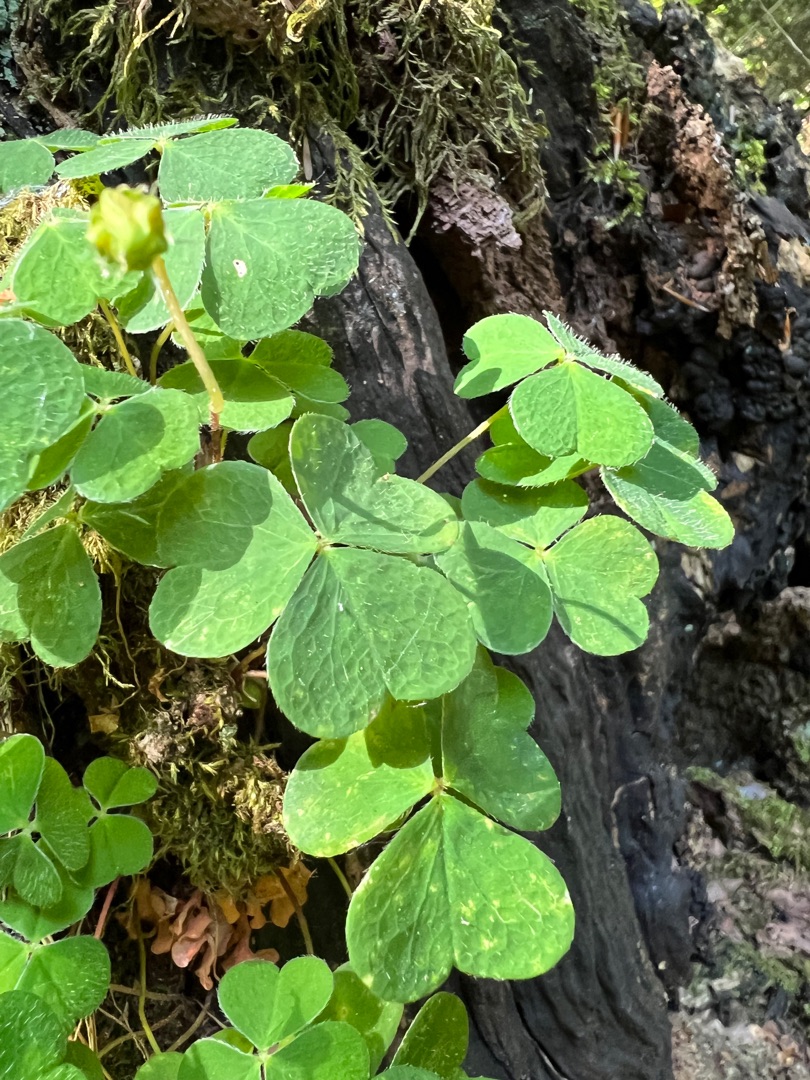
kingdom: Plantae
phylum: Tracheophyta
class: Magnoliopsida
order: Oxalidales
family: Oxalidaceae
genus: Oxalis
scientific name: Oxalis acetosella
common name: Skovsyre
